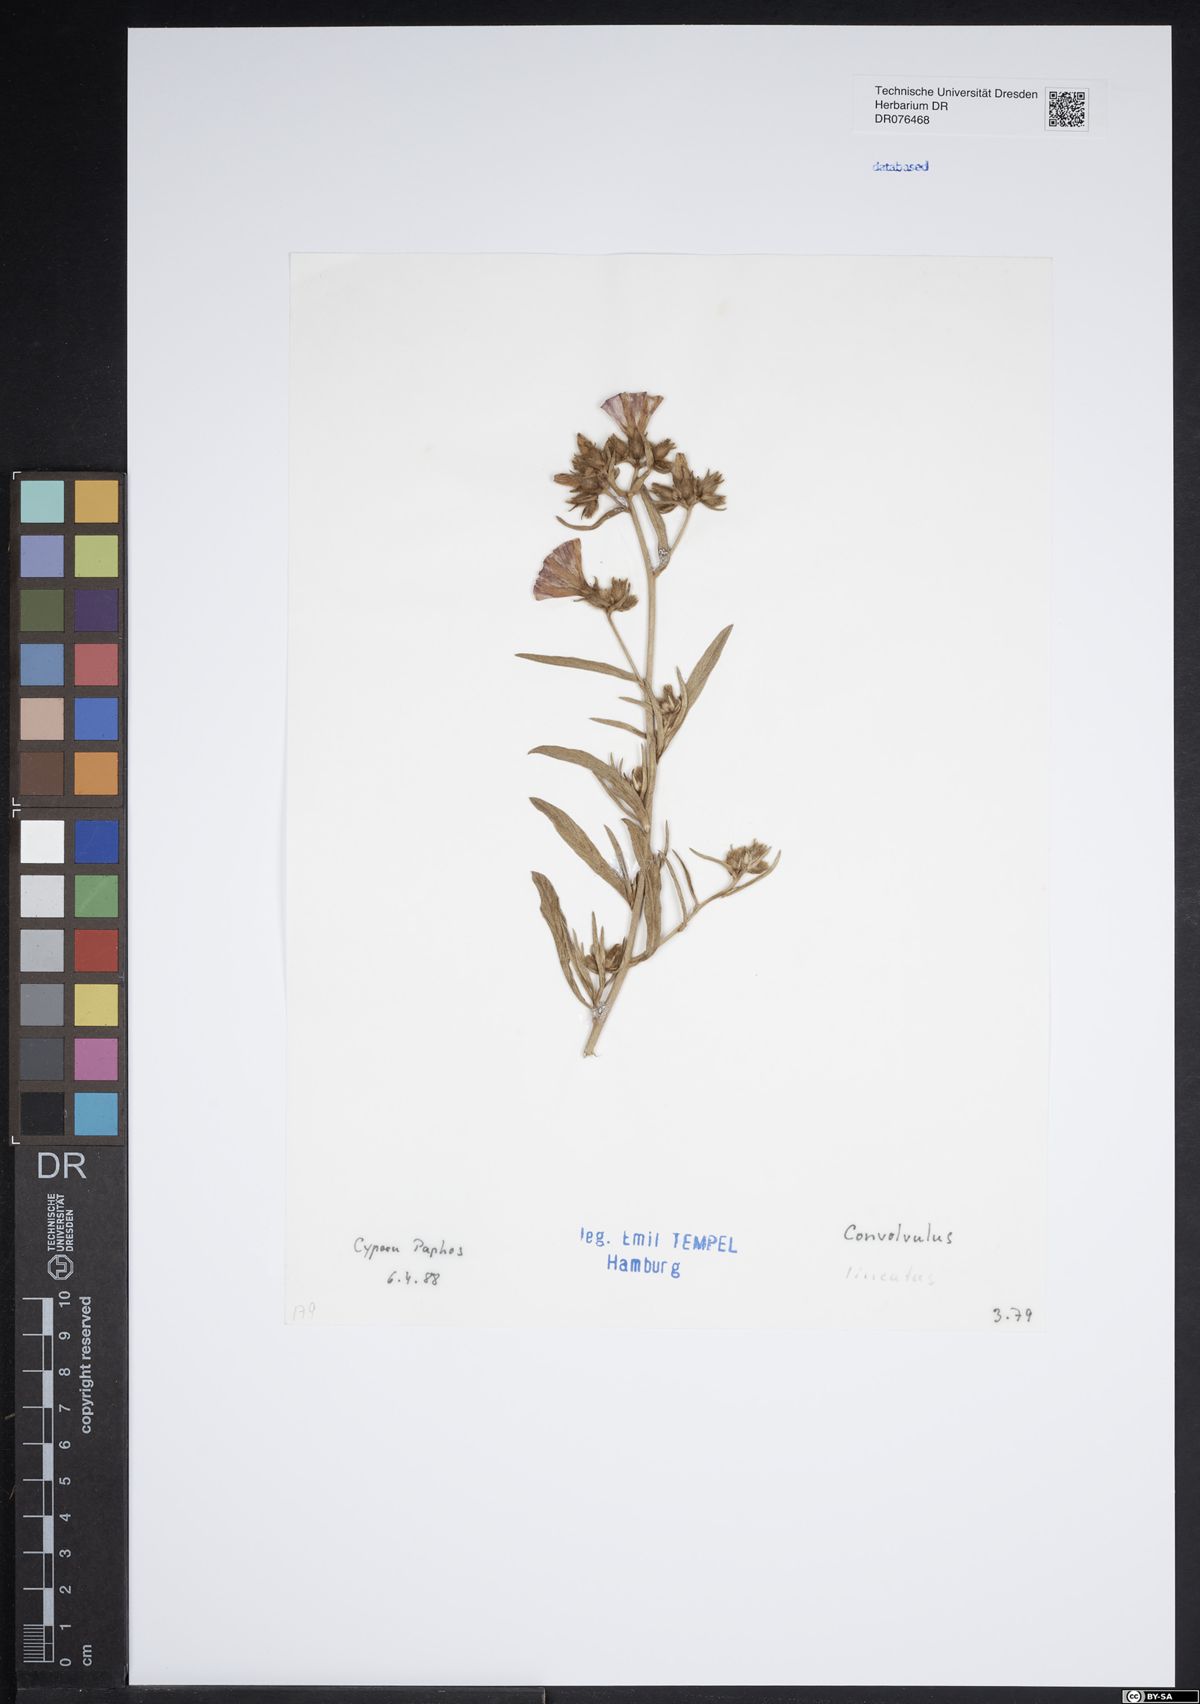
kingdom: Plantae
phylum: Tracheophyta
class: Magnoliopsida
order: Solanales
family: Convolvulaceae
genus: Convolvulus
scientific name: Convolvulus lineatus
